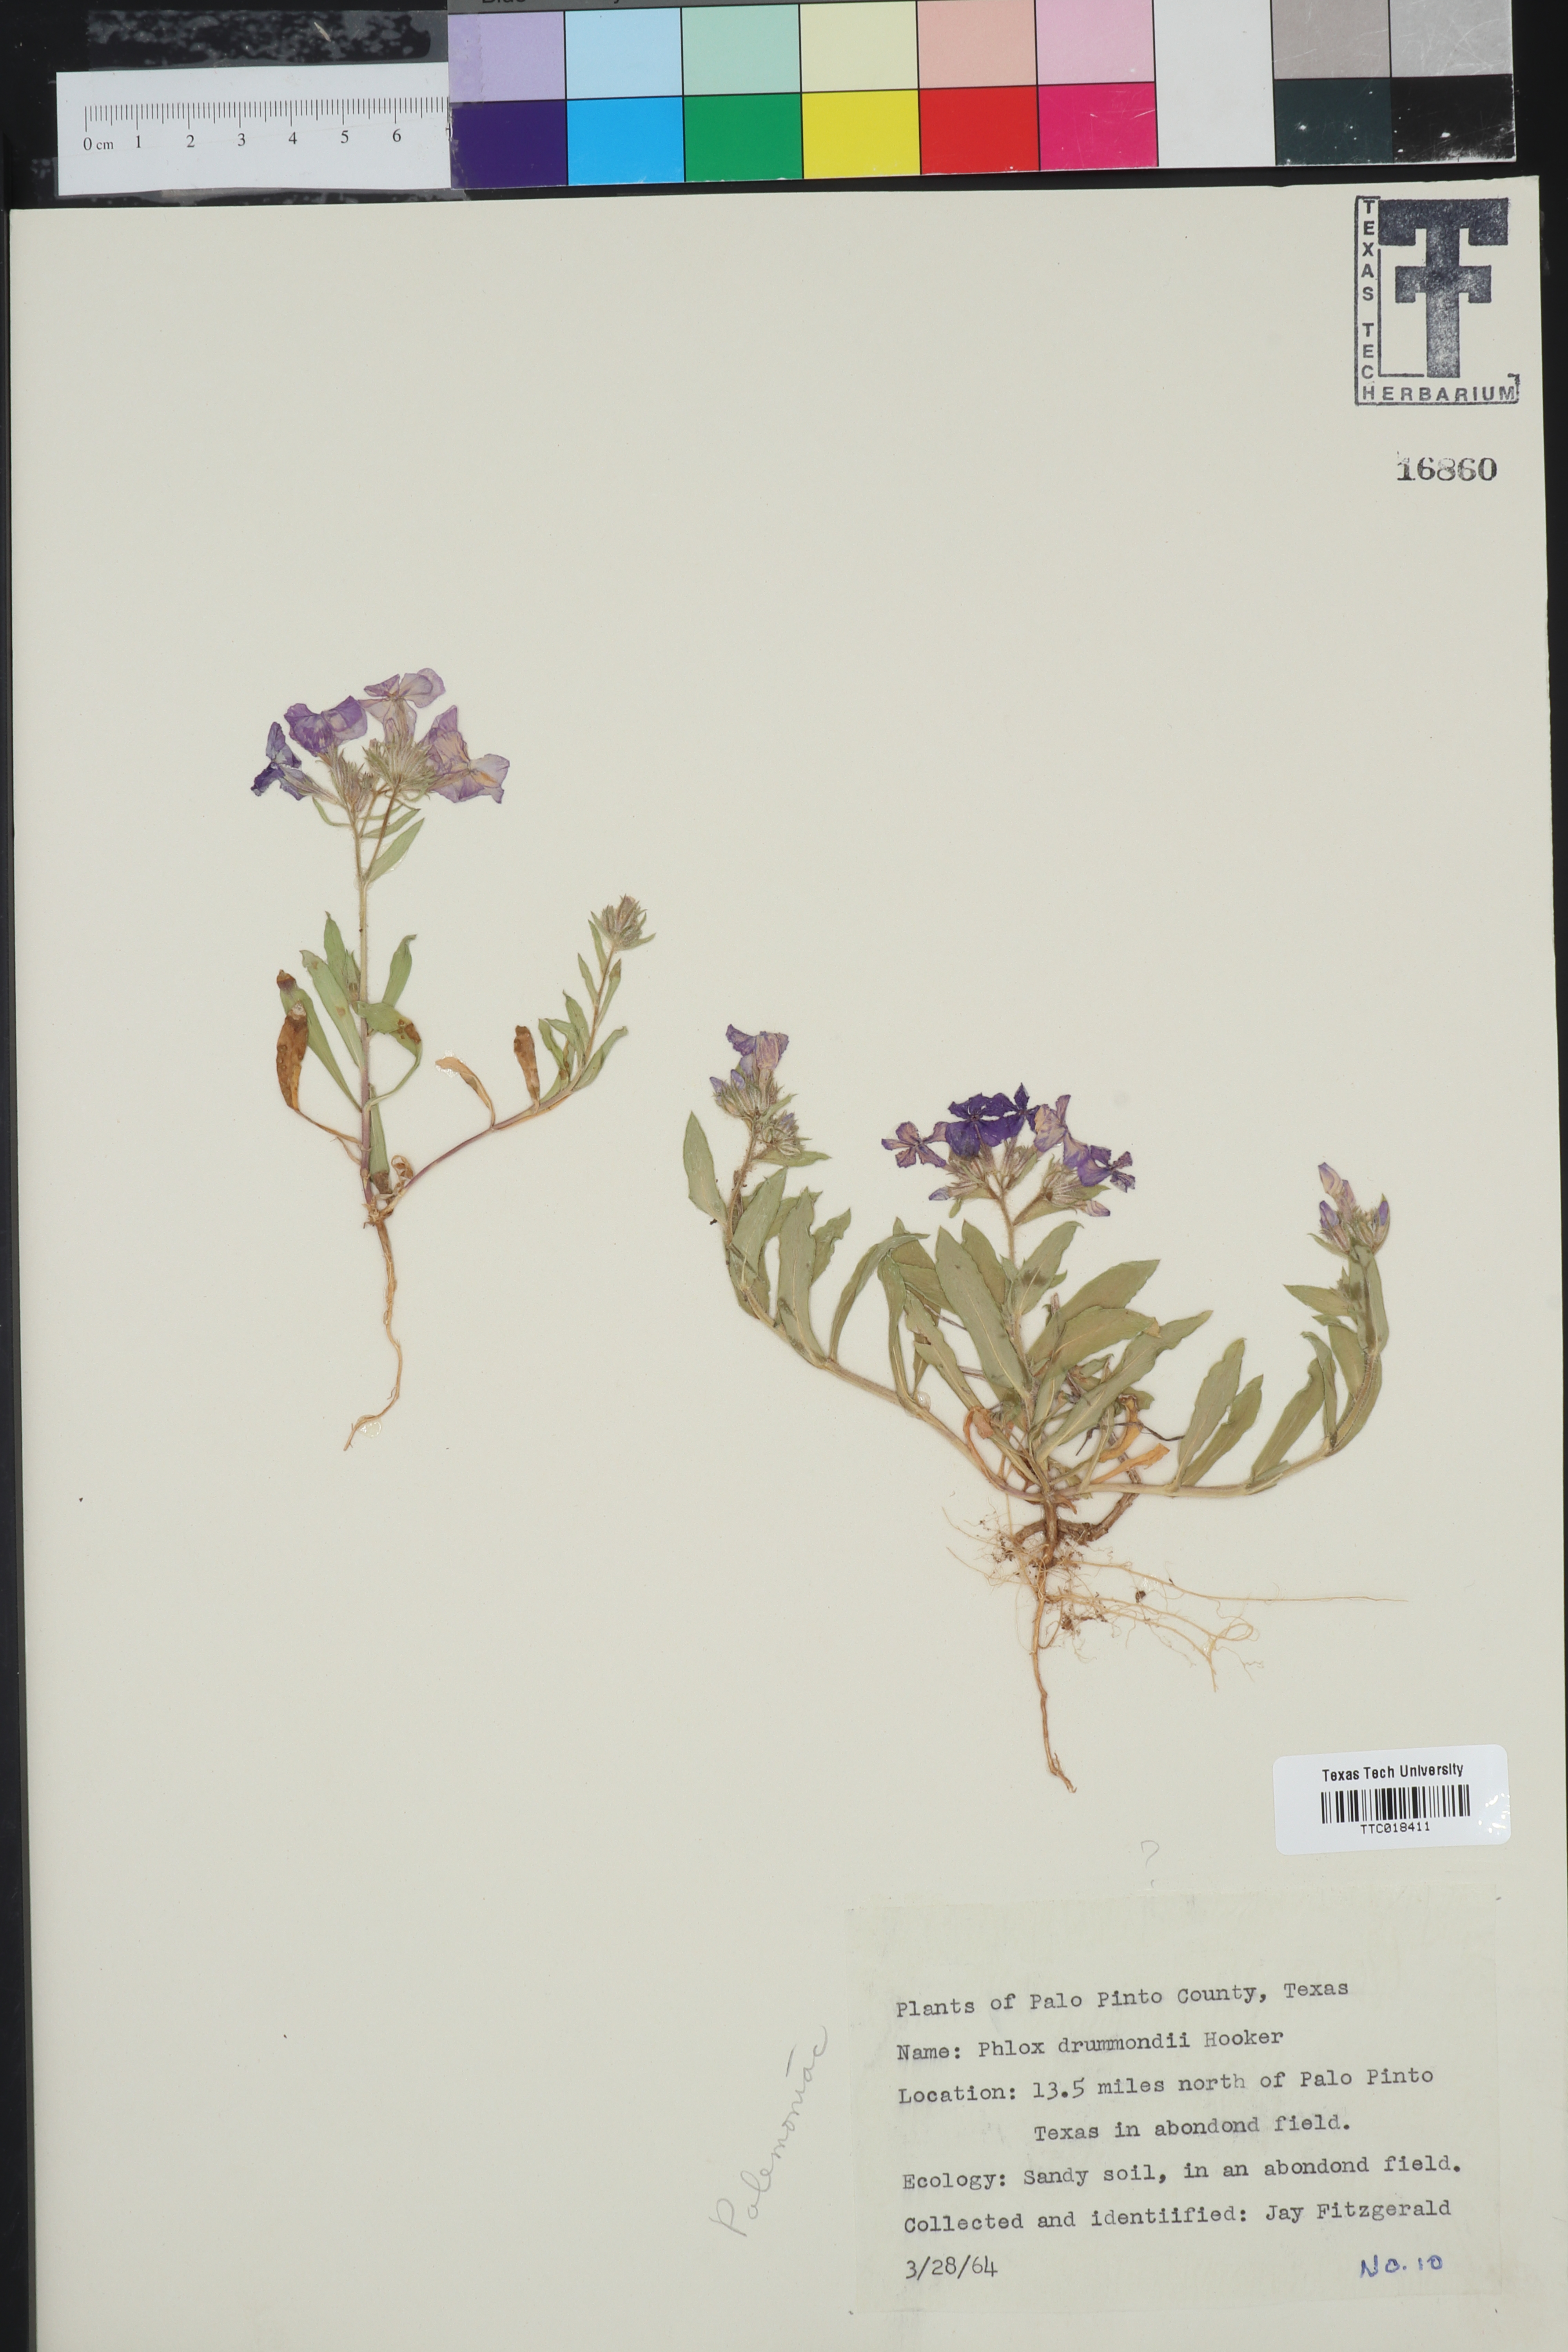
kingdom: Plantae
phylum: Tracheophyta
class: Magnoliopsida
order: Ericales
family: Polemoniaceae
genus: Phlox
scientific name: Phlox drummondii
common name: Drummond's phlox
